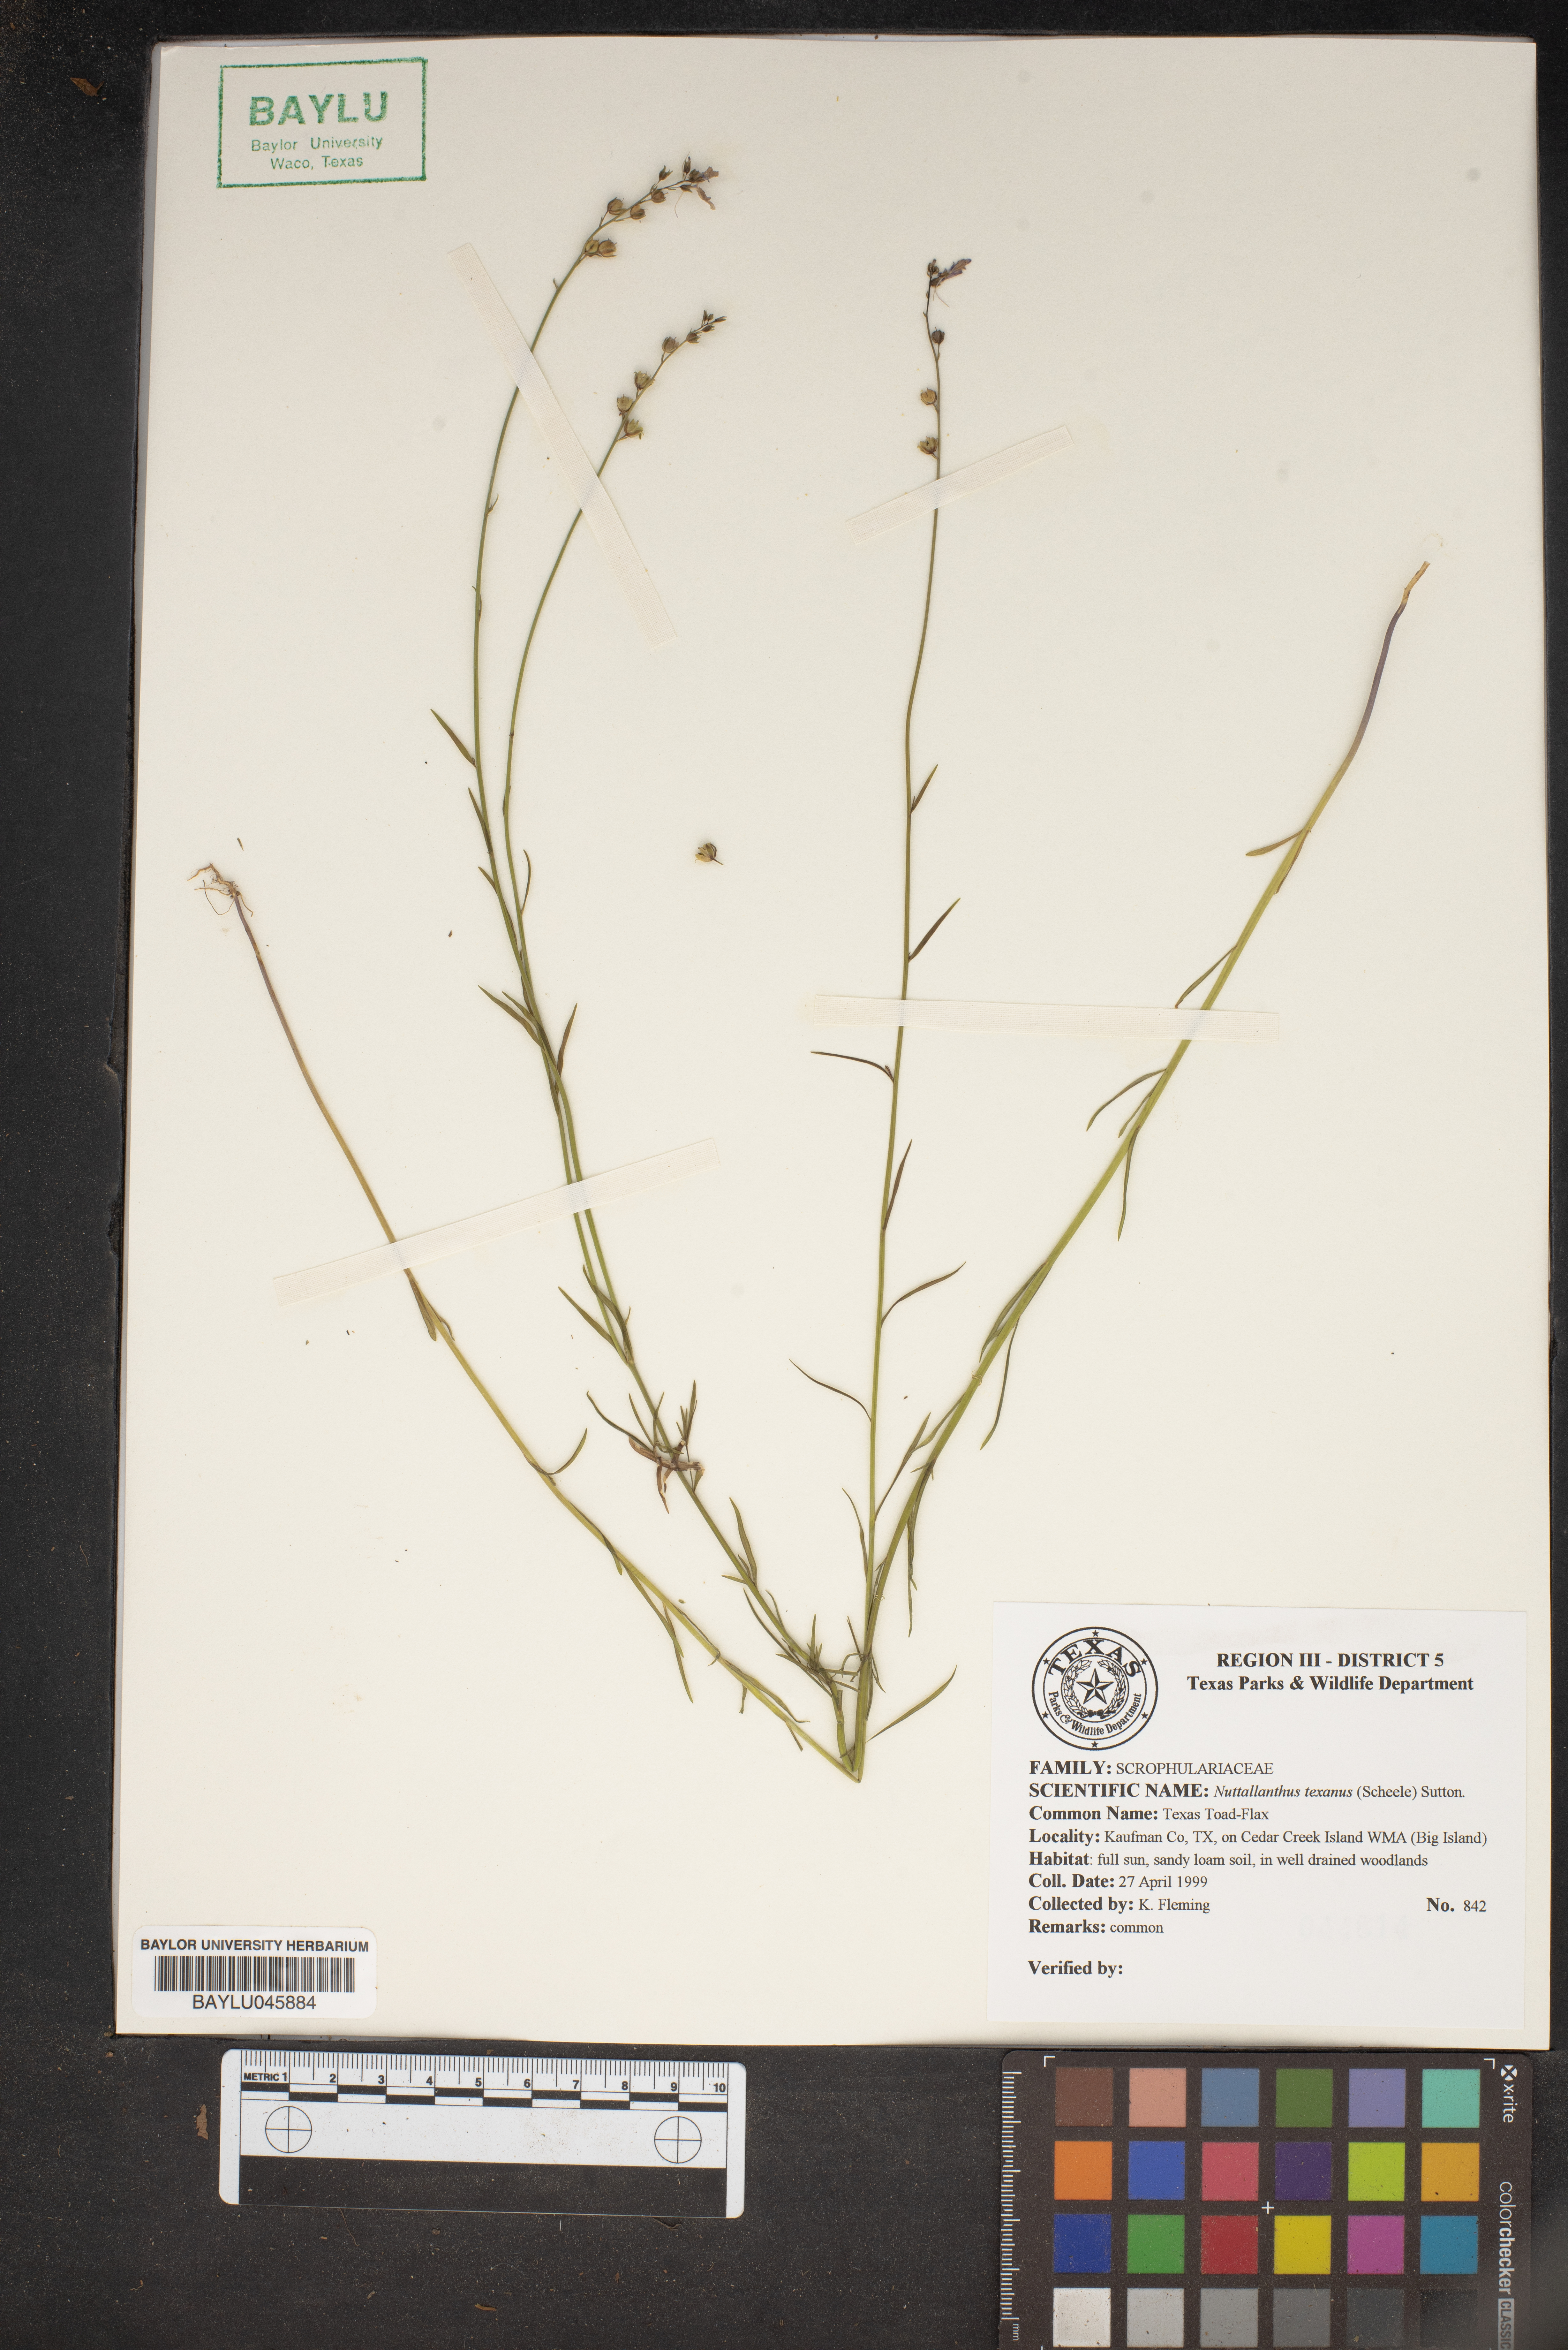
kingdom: Plantae
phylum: Tracheophyta
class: Magnoliopsida
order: Lamiales
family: Plantaginaceae
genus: Nuttallanthus
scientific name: Nuttallanthus texanus
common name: Texas toadflax
